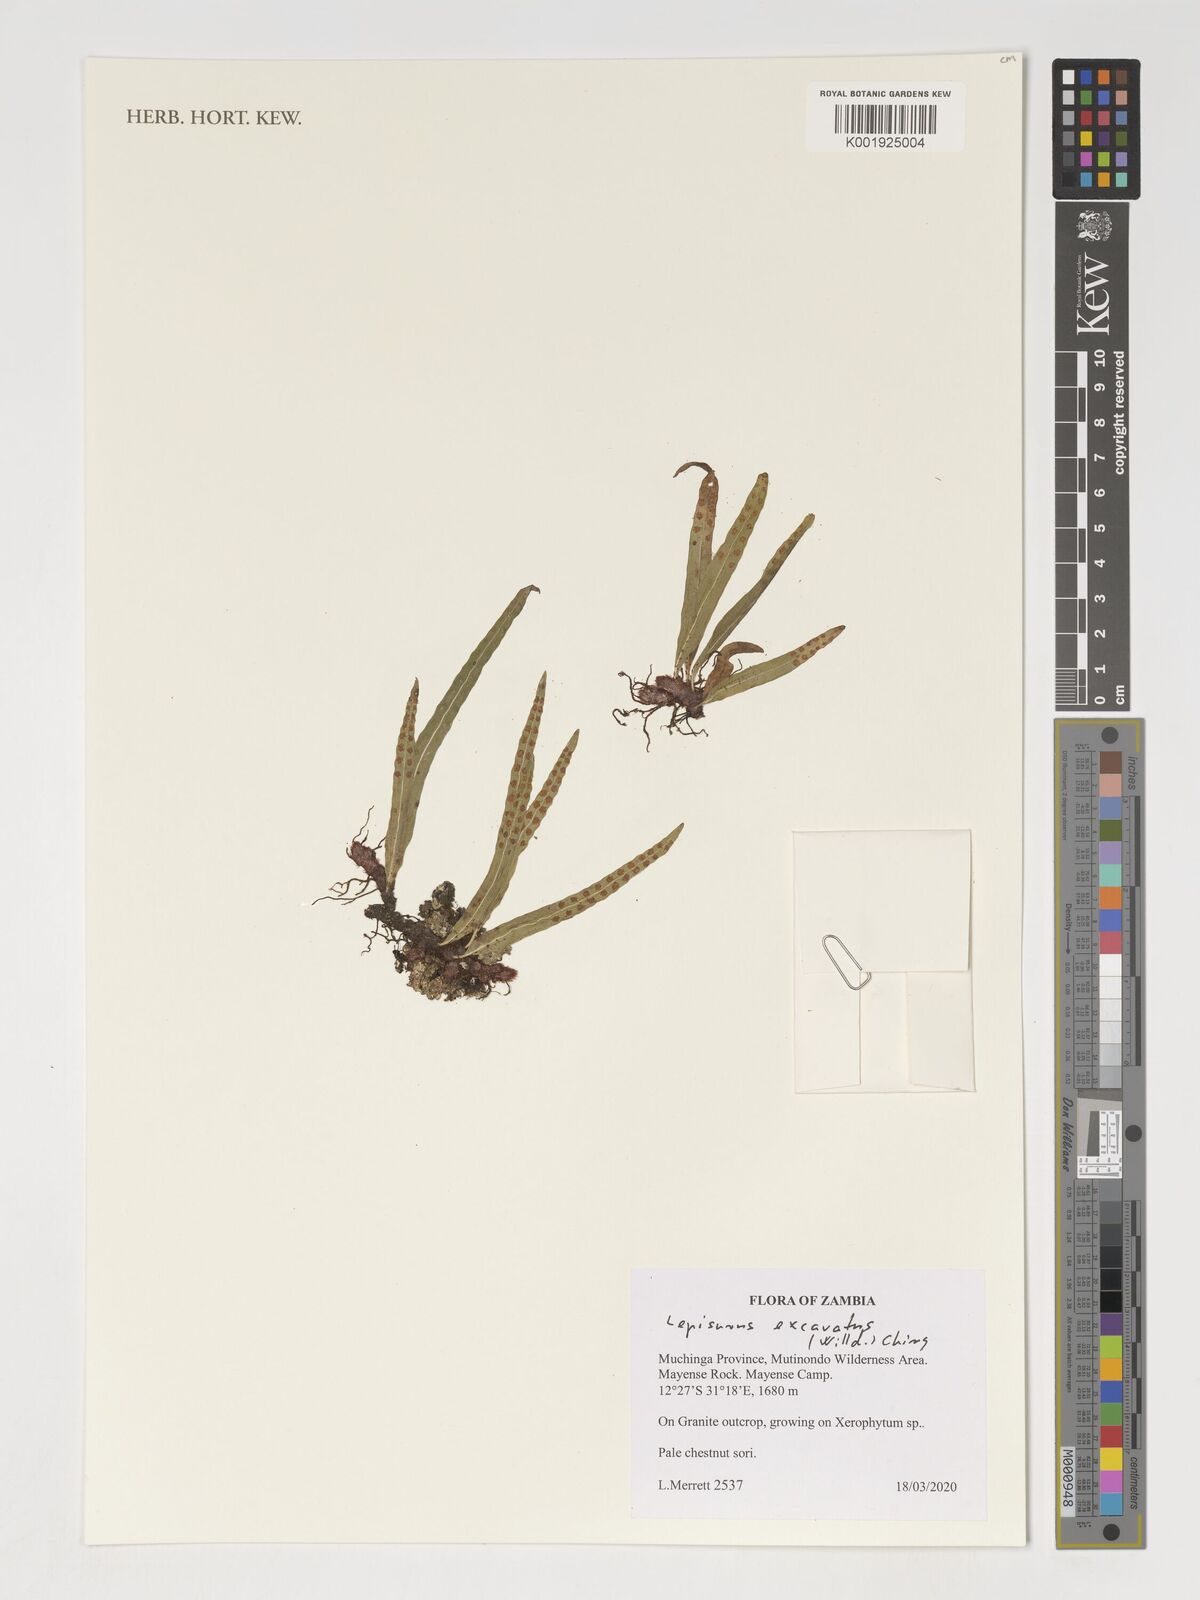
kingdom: Plantae
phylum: Tracheophyta
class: Polypodiopsida
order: Polypodiales
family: Polypodiaceae
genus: Lepisorus
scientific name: Lepisorus excavatus
